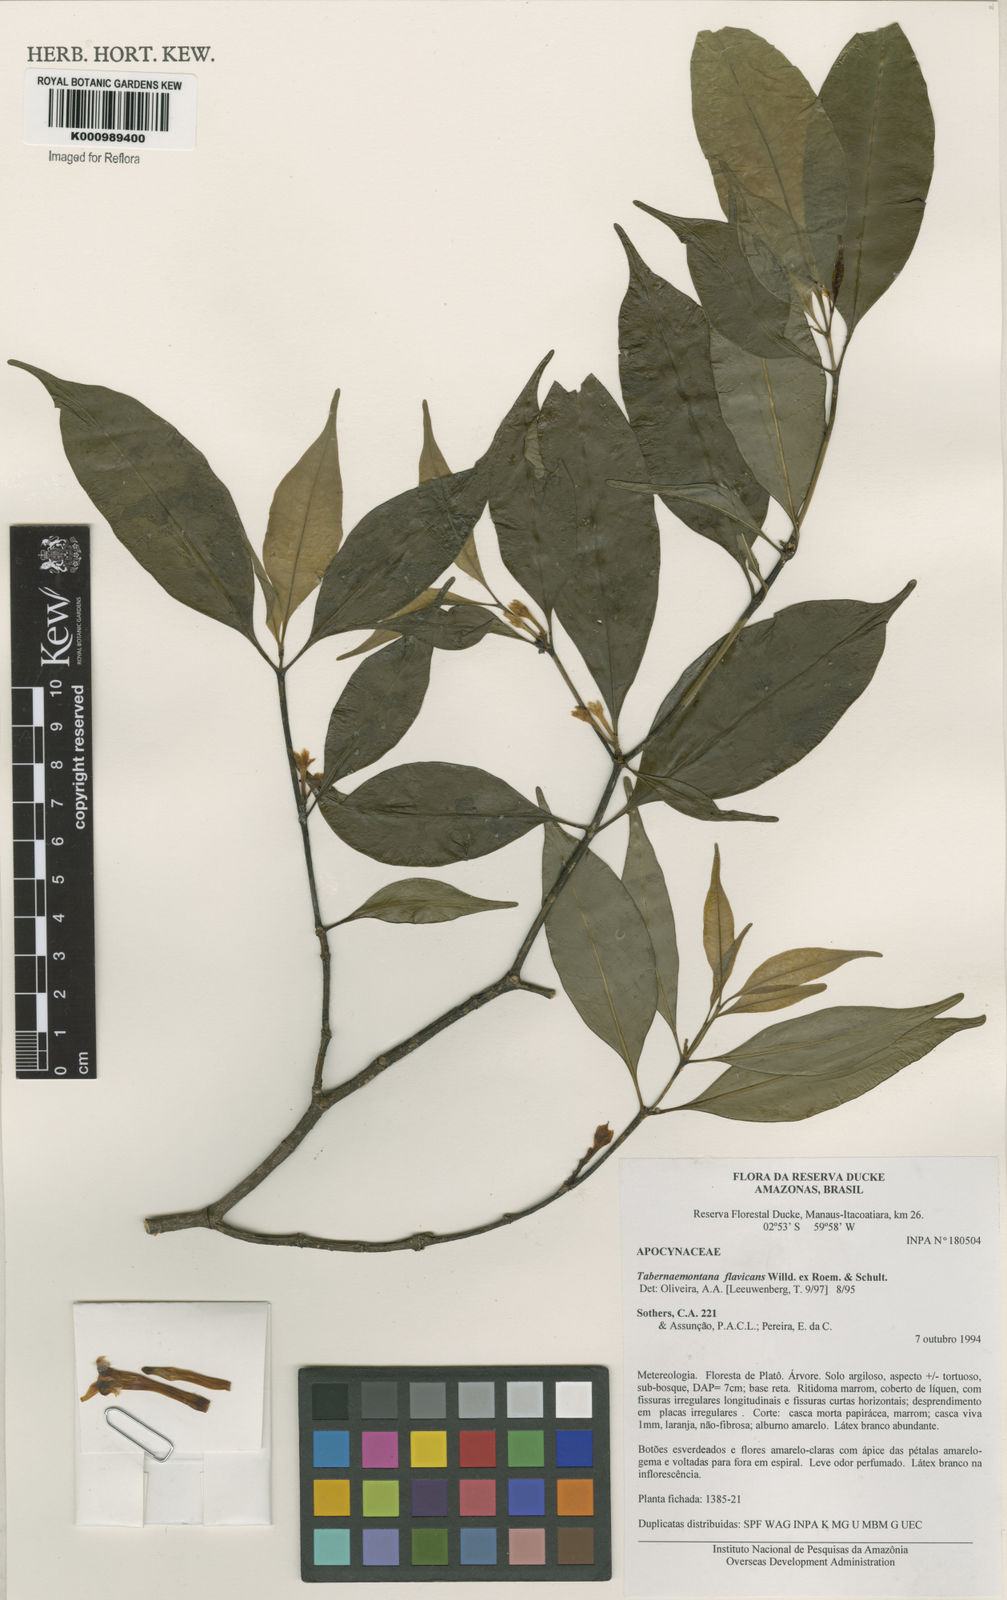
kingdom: Plantae
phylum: Tracheophyta
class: Magnoliopsida
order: Gentianales
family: Apocynaceae
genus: Tabernaemontana
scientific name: Tabernaemontana flavicans
